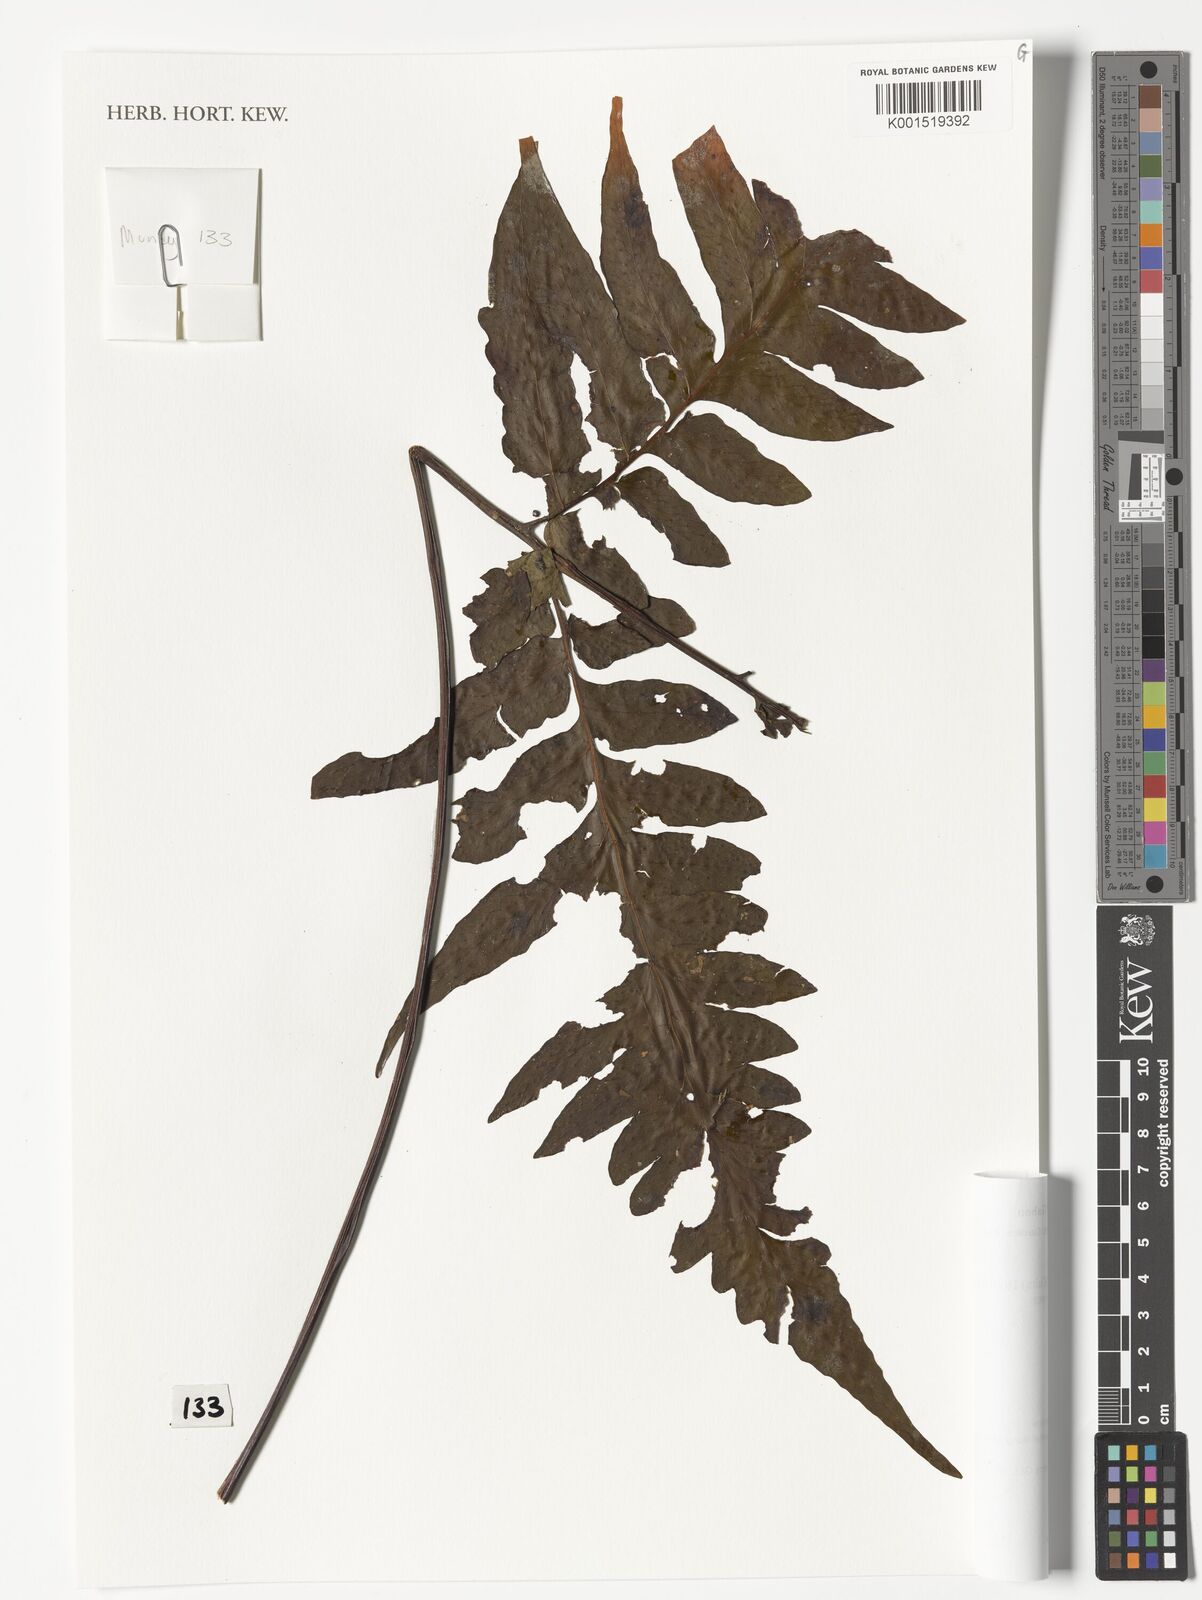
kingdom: Plantae
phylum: Tracheophyta
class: Polypodiopsida
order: Polypodiales
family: Tectariaceae
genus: Triplophyllum
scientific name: Triplophyllum buchholzii
